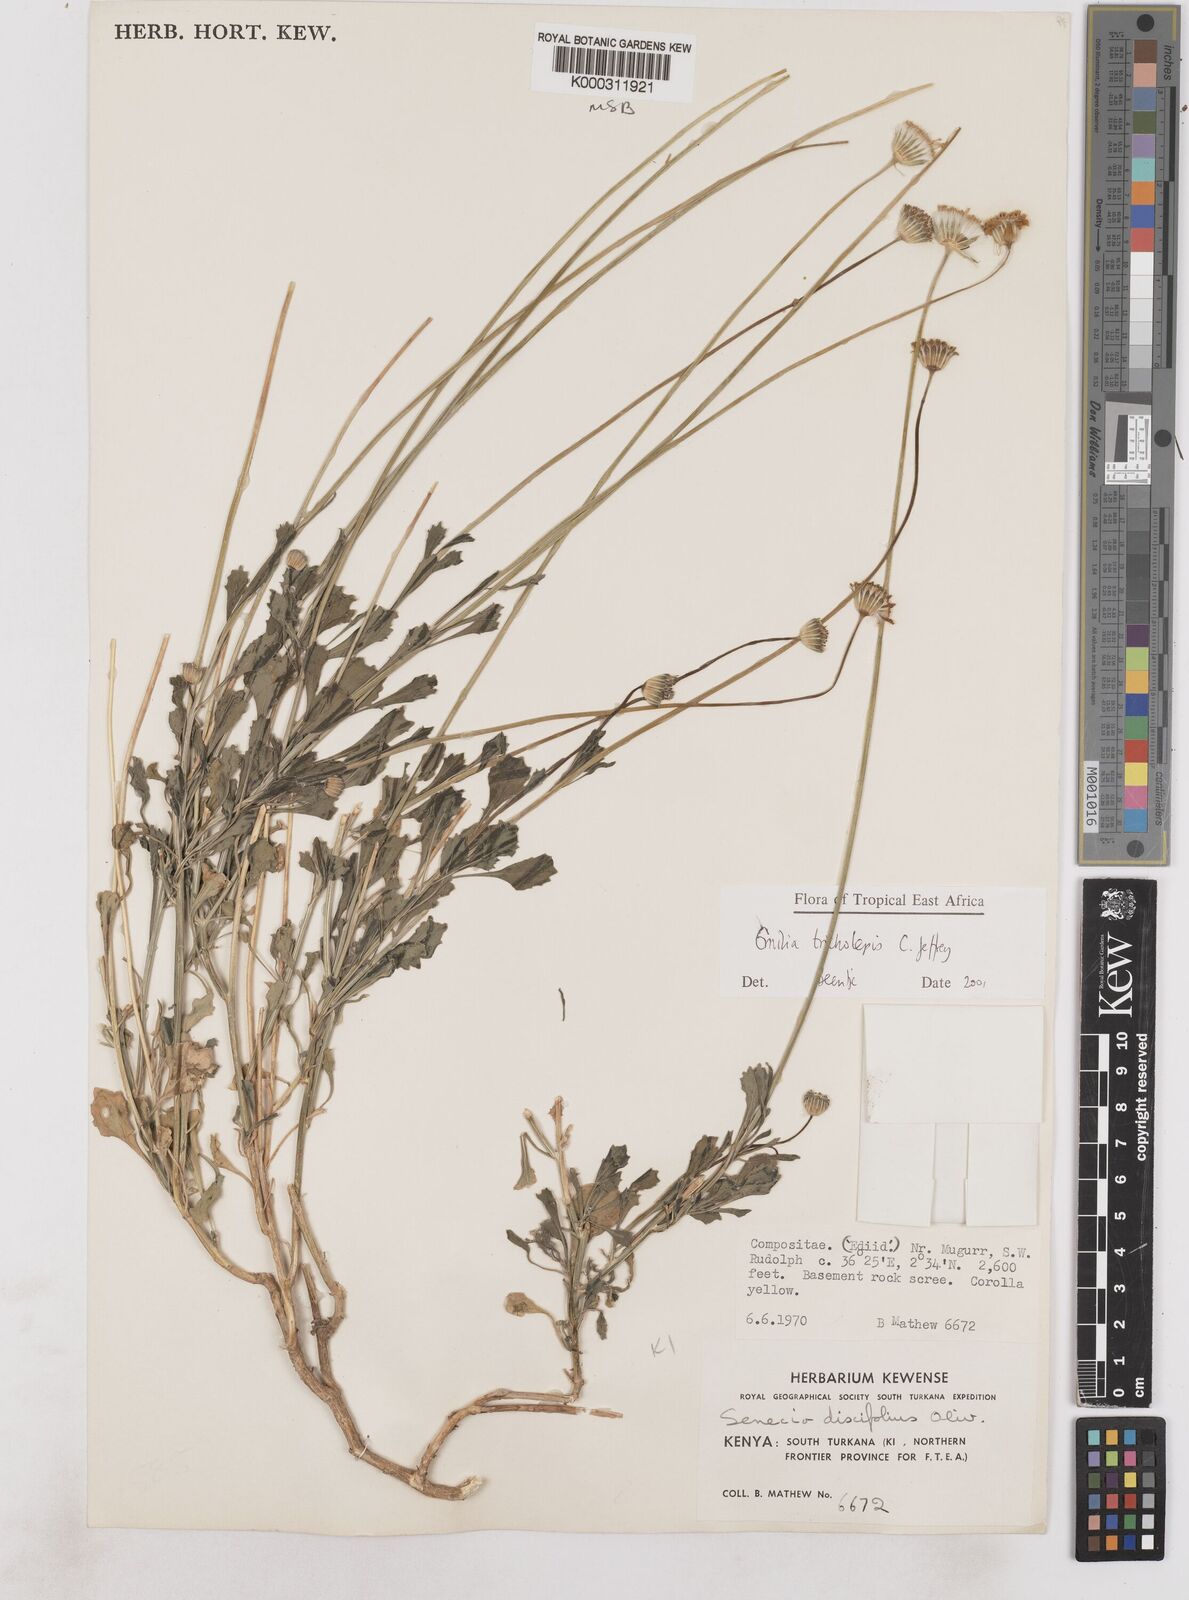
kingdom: Plantae
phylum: Tracheophyta
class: Magnoliopsida
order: Asterales
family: Asteraceae
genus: Emilia
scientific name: Emilia tricholepis
